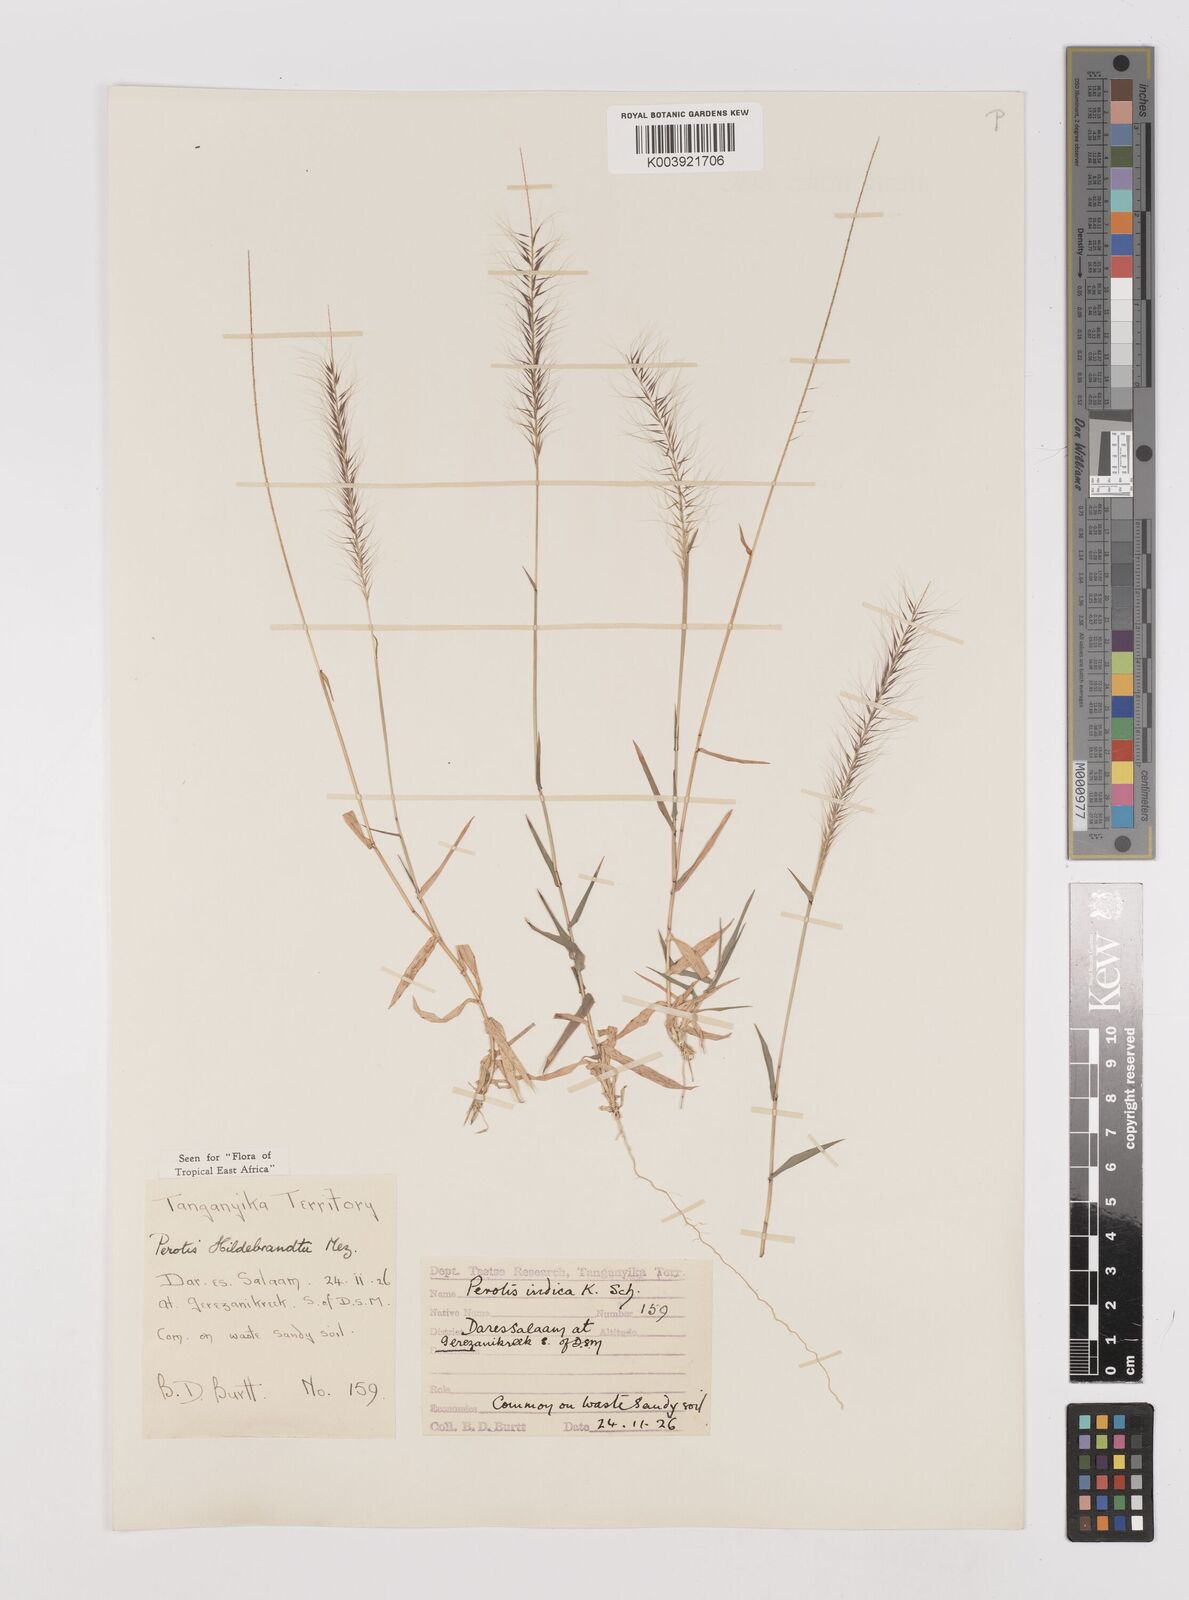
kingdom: Plantae
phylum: Tracheophyta
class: Liliopsida
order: Poales
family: Poaceae
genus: Perotis
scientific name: Perotis hildebrandtii
